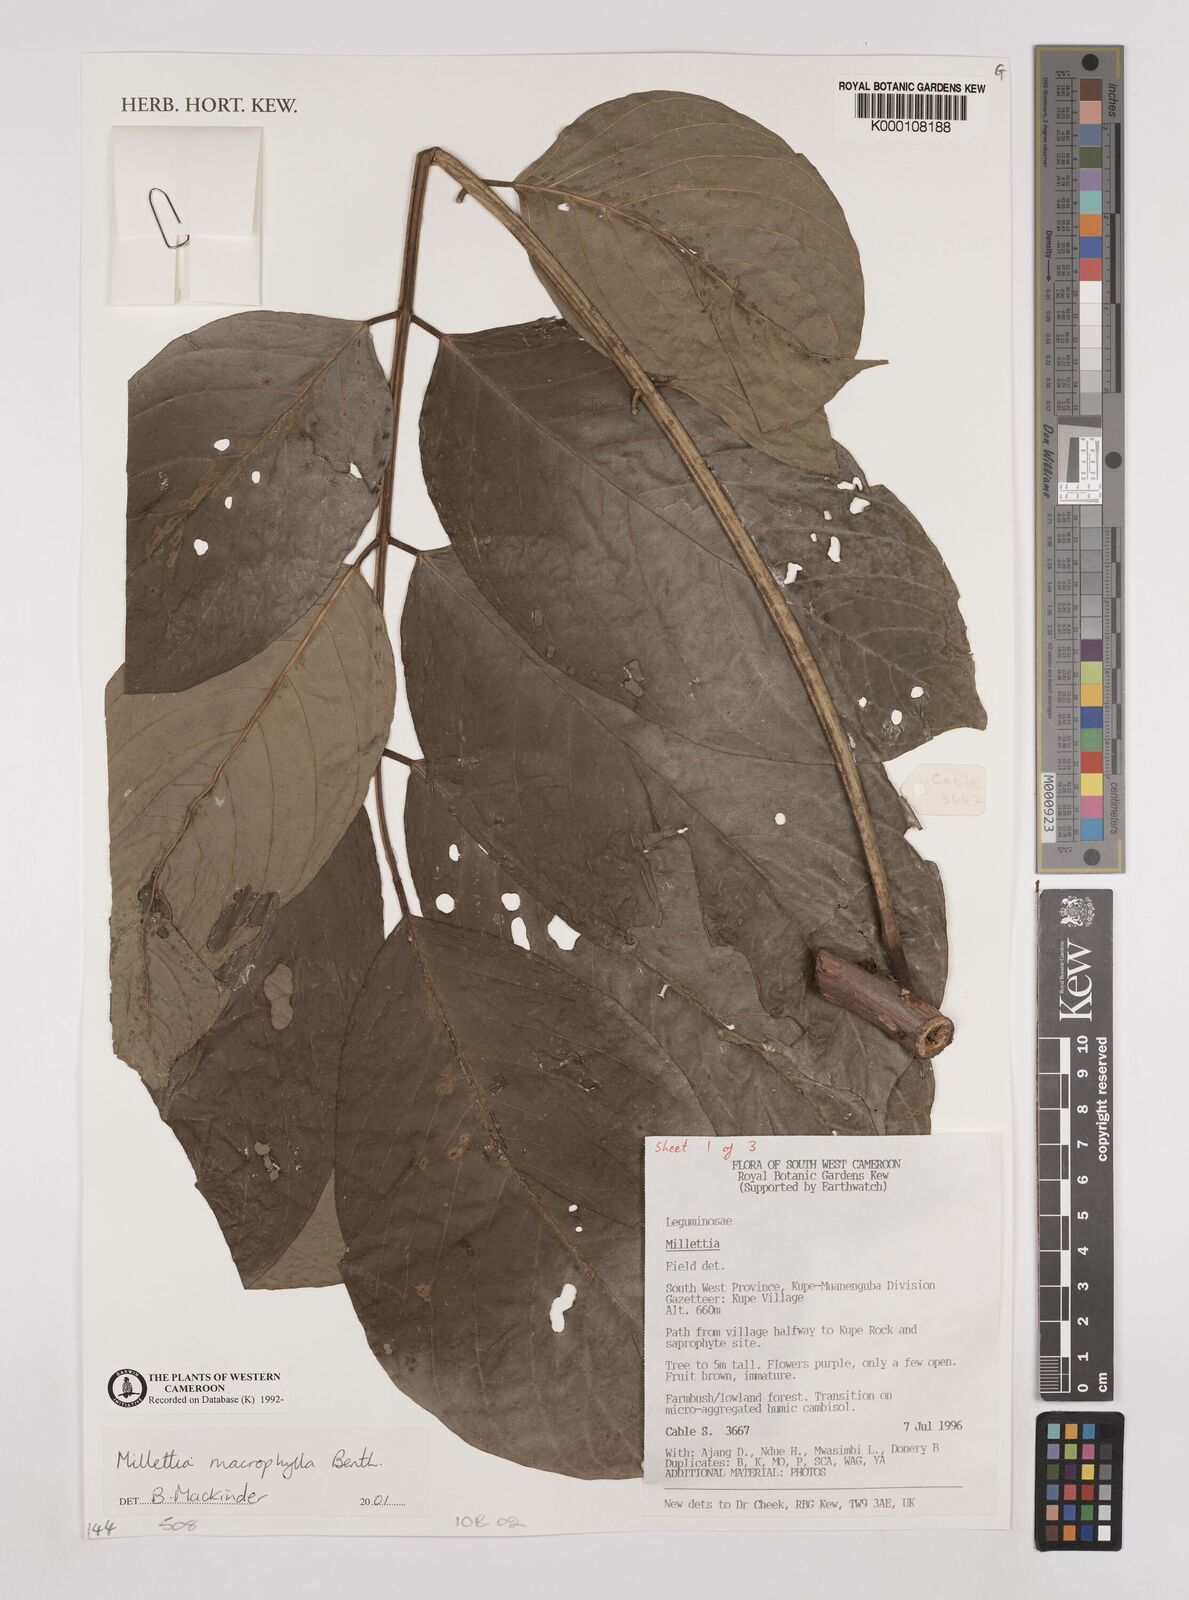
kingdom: Plantae
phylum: Tracheophyta
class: Magnoliopsida
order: Fabales
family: Fabaceae
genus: Millettia
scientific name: Millettia macrophylla
